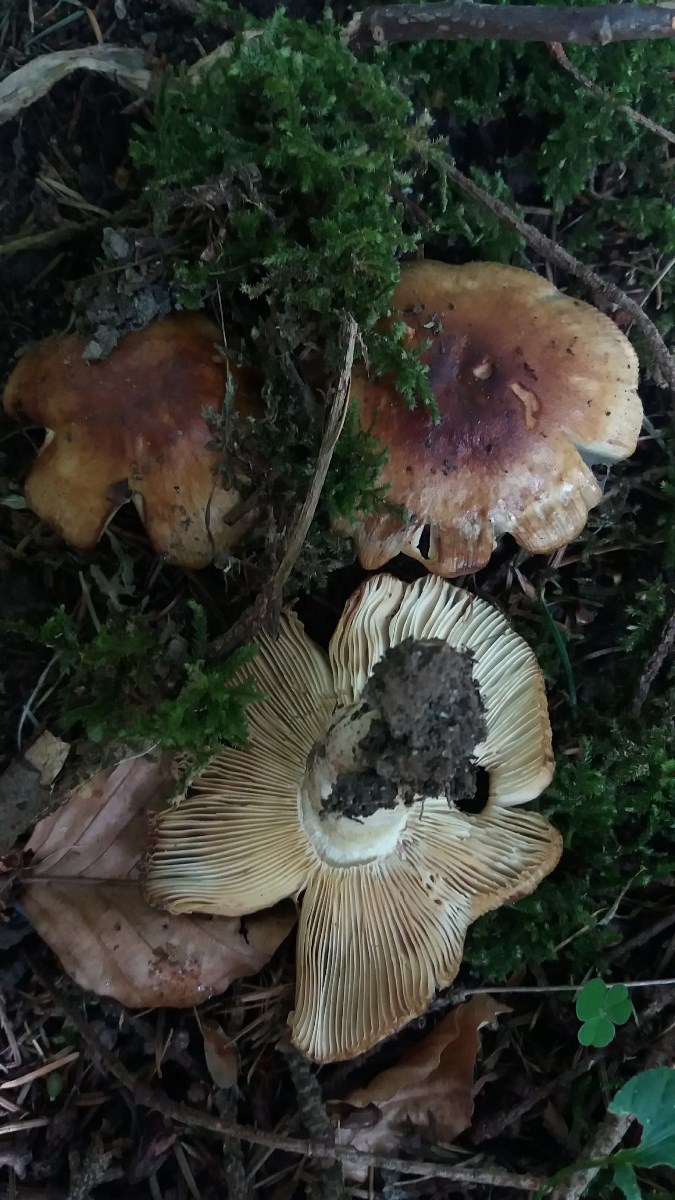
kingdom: Fungi
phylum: Basidiomycota
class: Agaricomycetes
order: Russulales
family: Russulaceae
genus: Russula
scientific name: Russula recondita
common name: mild kam-skørhat
